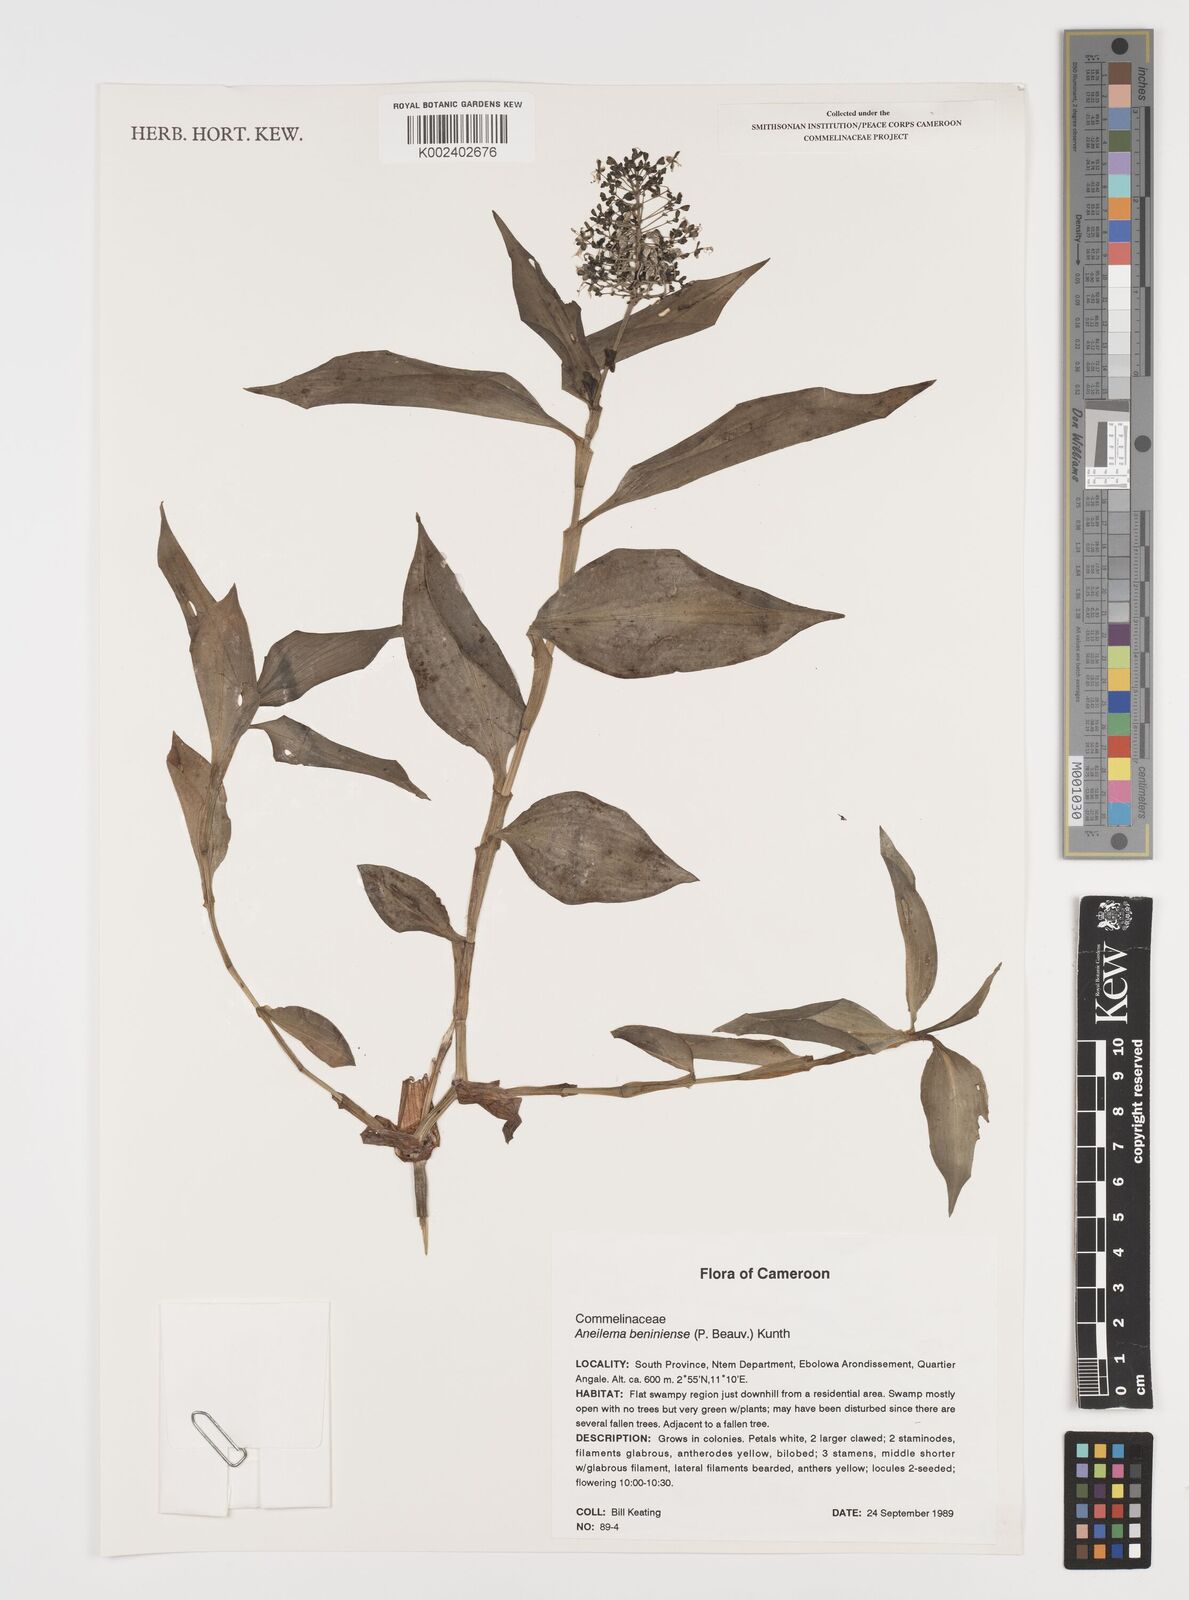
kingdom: Plantae
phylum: Tracheophyta
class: Liliopsida
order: Commelinales
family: Commelinaceae
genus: Aneilema
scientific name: Aneilema beniniense
